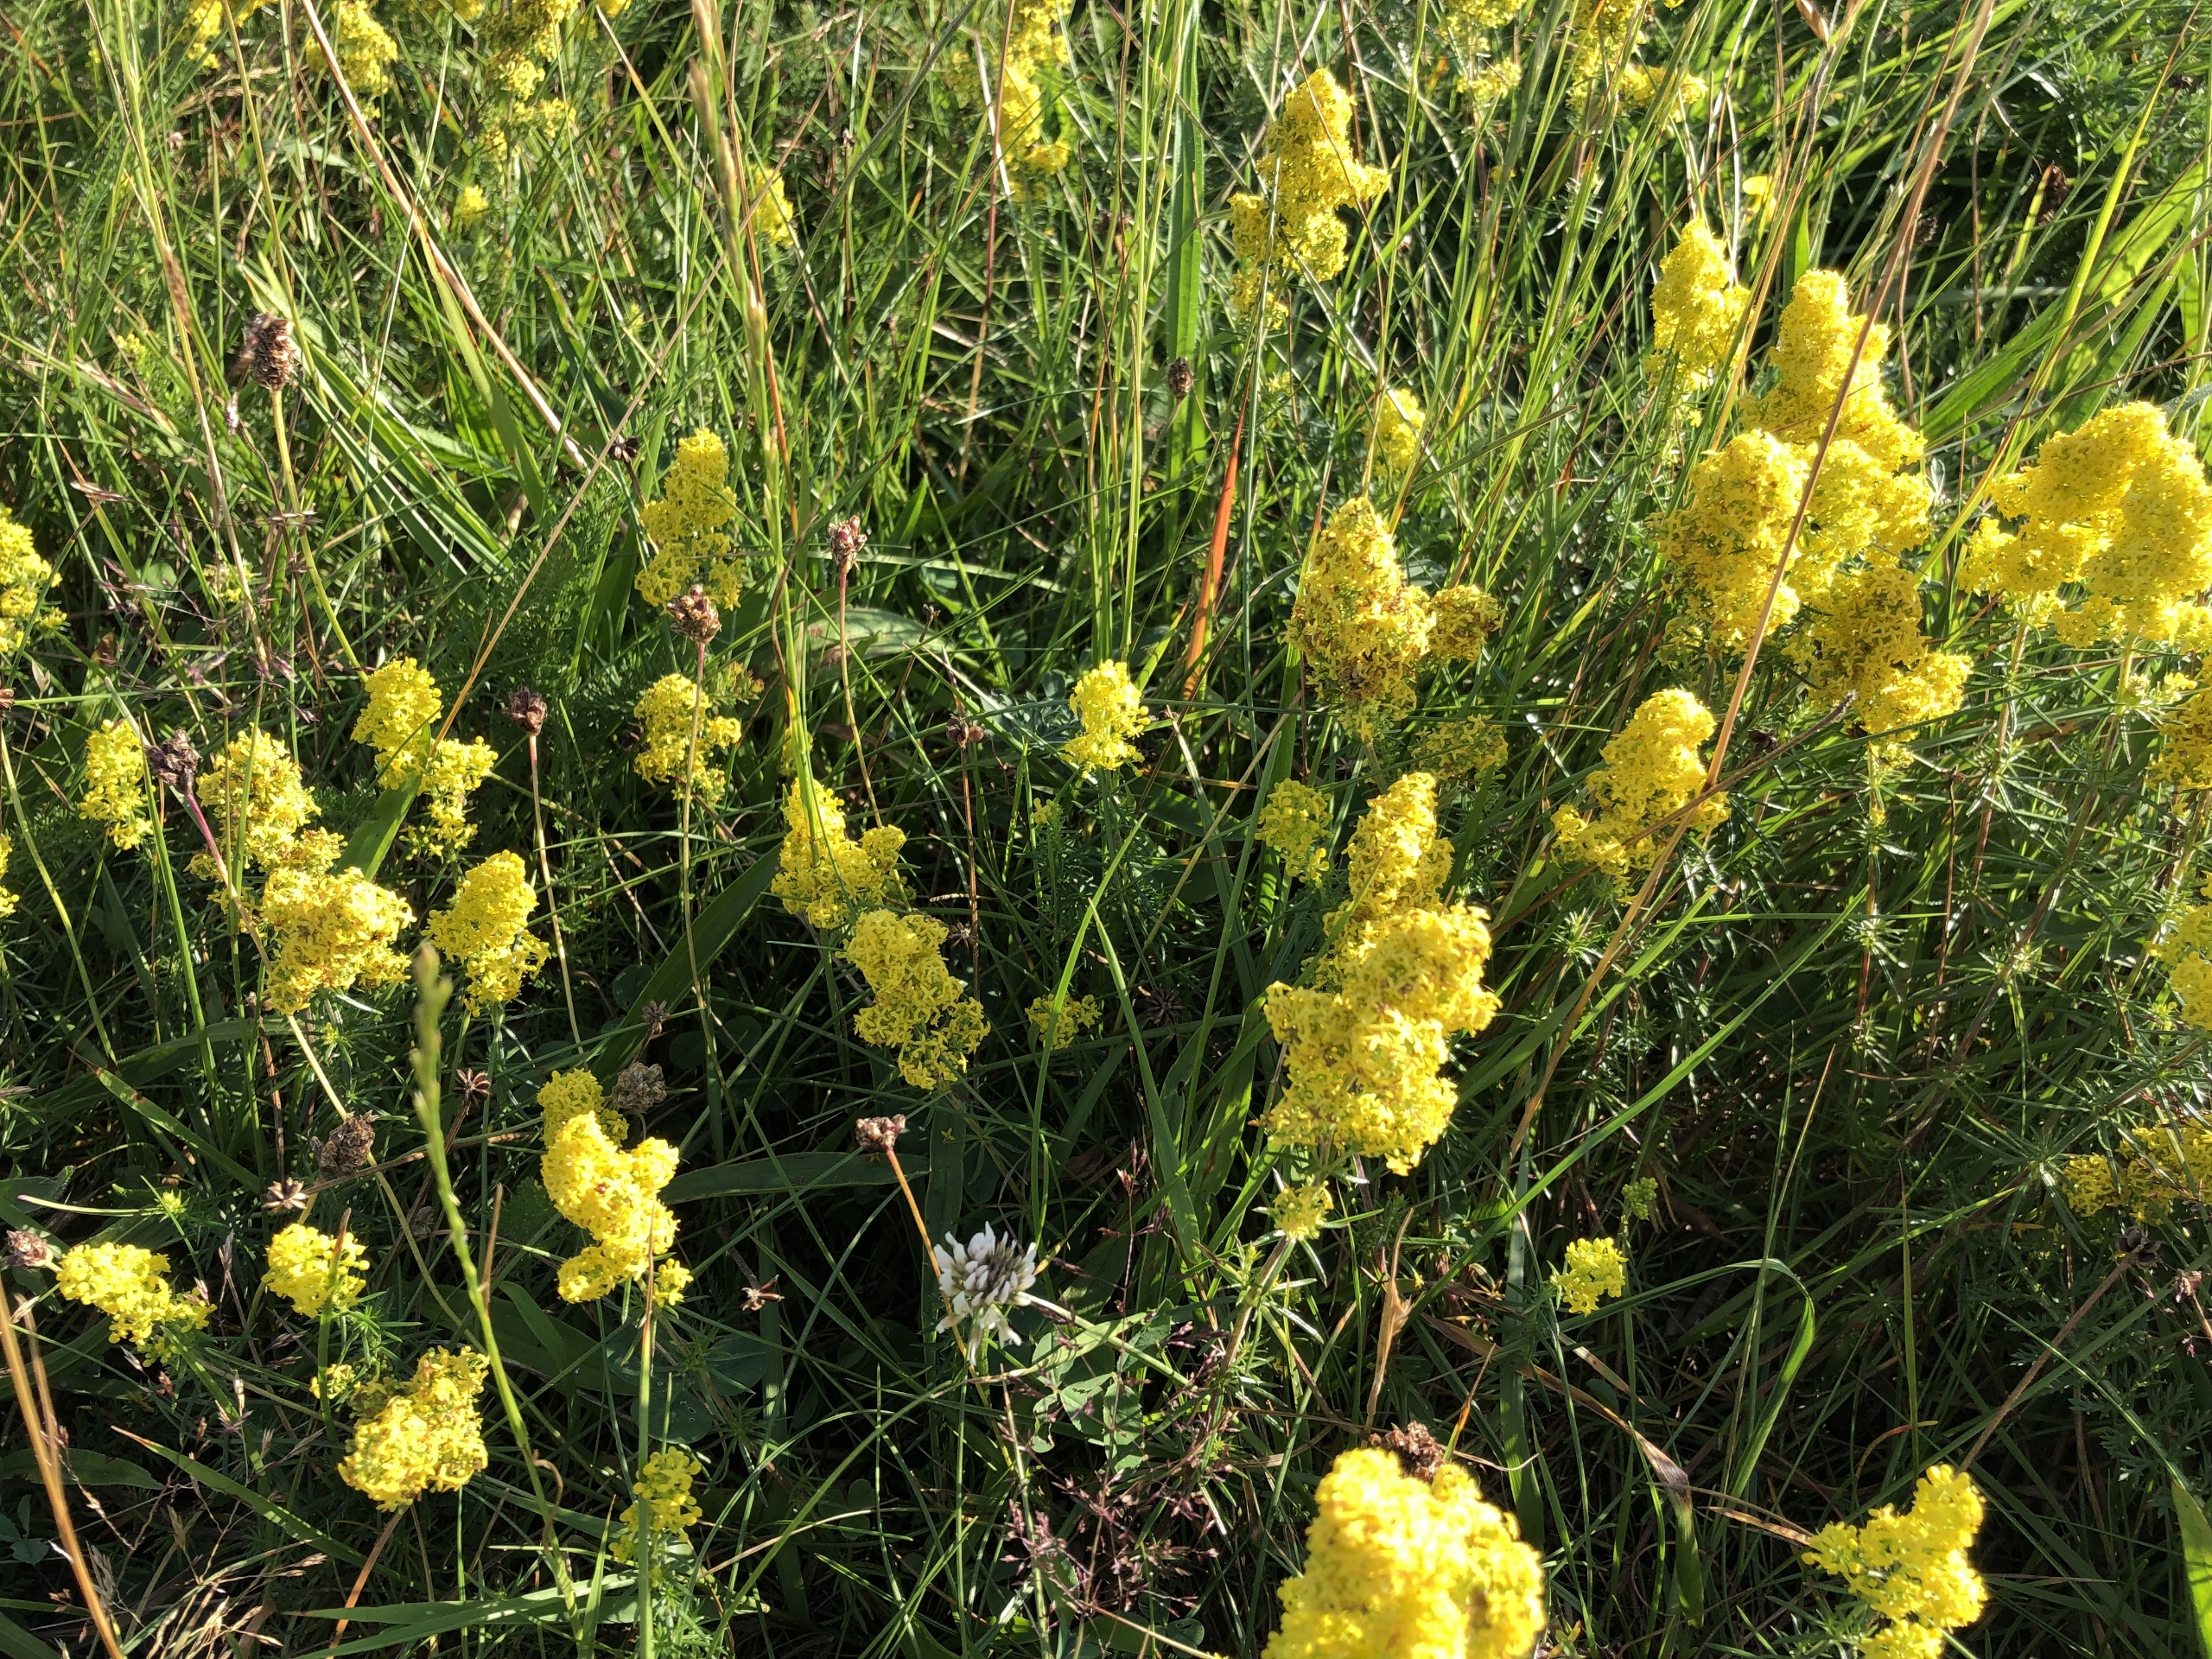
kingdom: Plantae
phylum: Tracheophyta
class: Magnoliopsida
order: Gentianales
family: Rubiaceae
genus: Galium
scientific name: Galium verum
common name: Gul snerre
